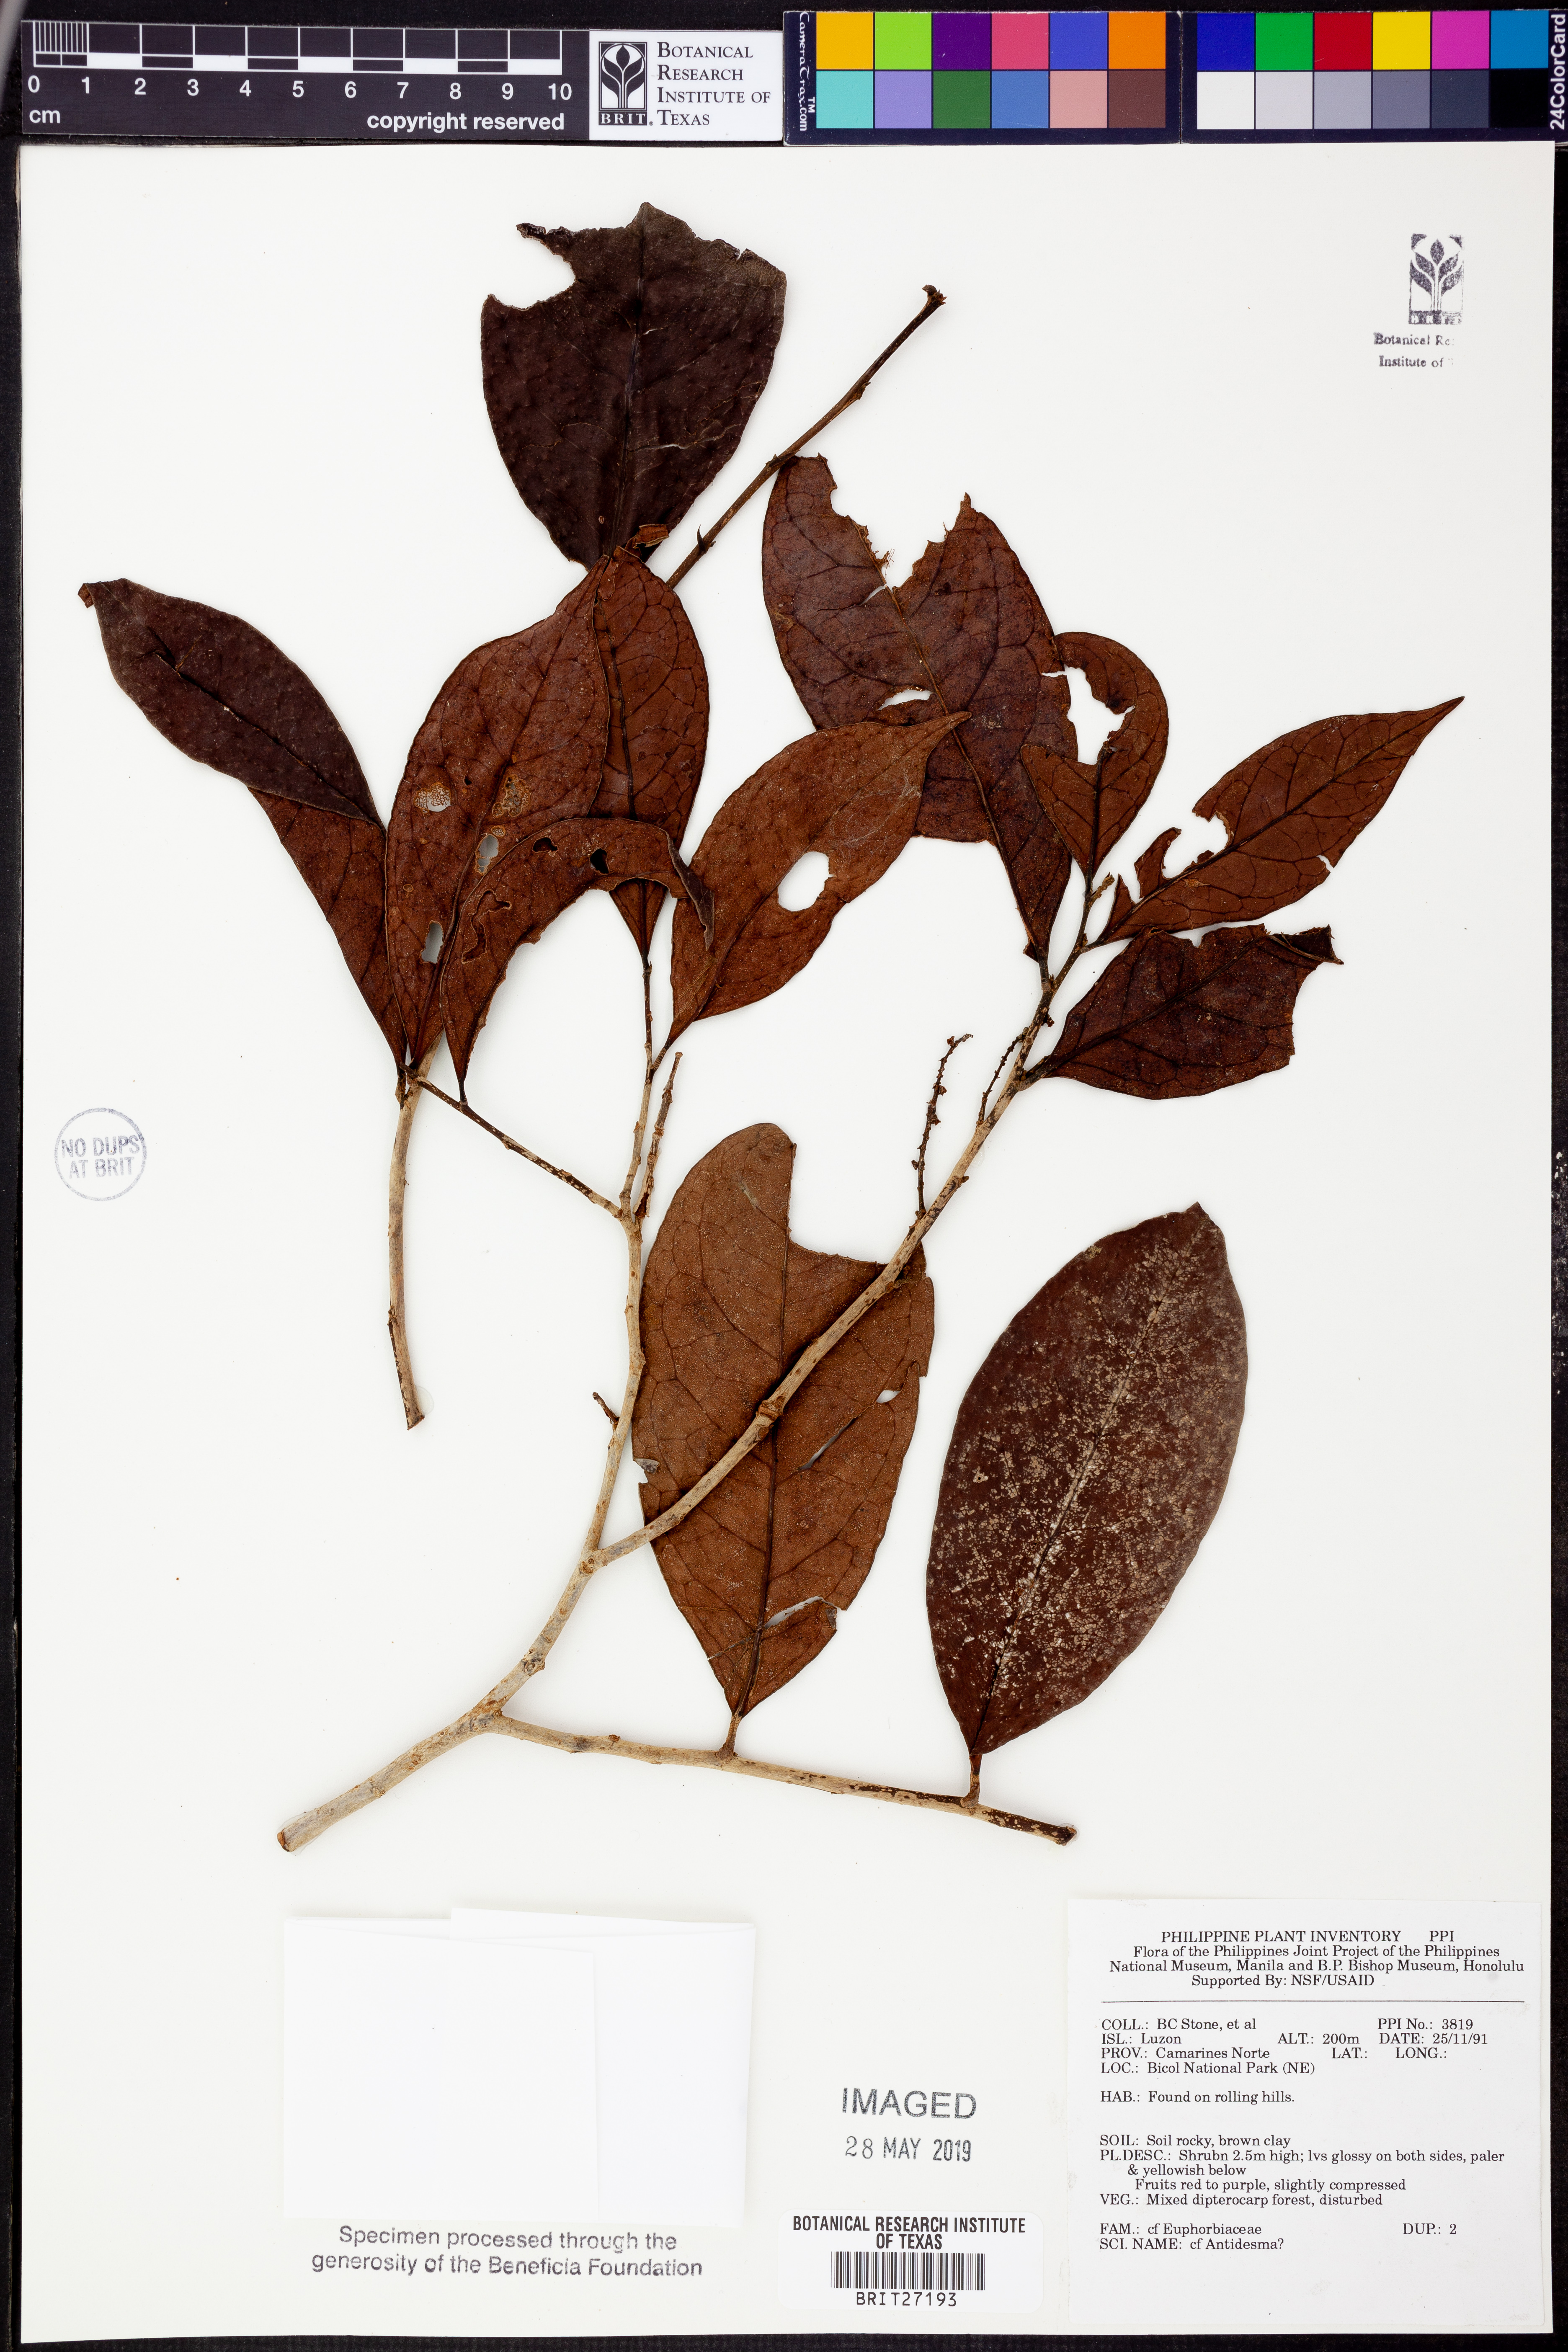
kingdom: Plantae
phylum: Tracheophyta
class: Magnoliopsida
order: Malpighiales
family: Phyllanthaceae
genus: Antidesma
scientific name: Antidesma
